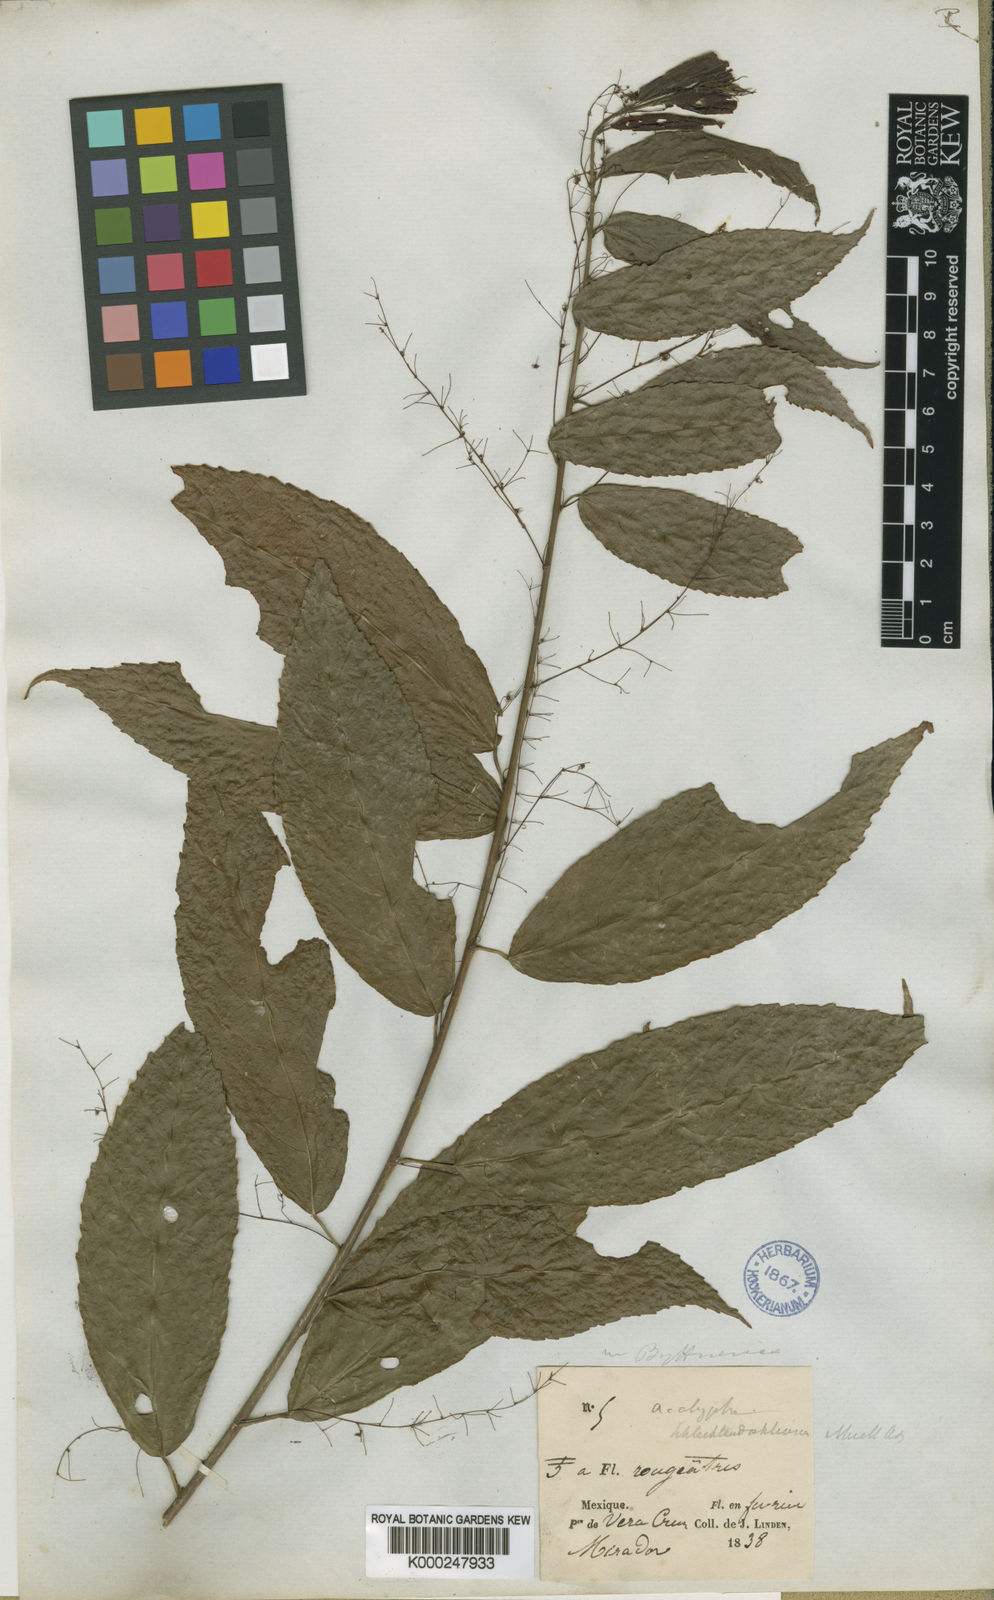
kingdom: Plantae
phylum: Tracheophyta
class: Magnoliopsida
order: Malpighiales
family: Euphorbiaceae
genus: Acalypha
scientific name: Acalypha
